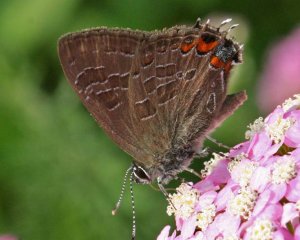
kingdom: Animalia
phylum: Arthropoda
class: Insecta
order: Lepidoptera
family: Lycaenidae
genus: Satyrium
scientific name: Satyrium liparops
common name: Striped Hairstreak
